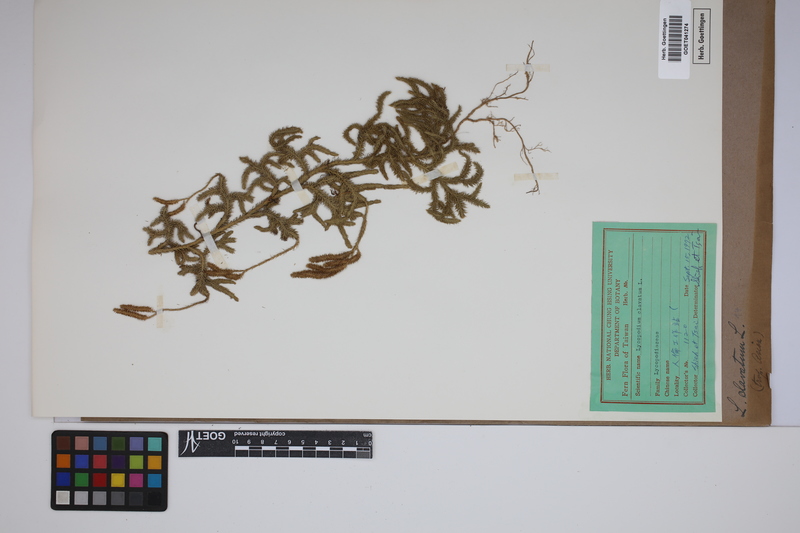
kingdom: Plantae
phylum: Tracheophyta
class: Lycopodiopsida
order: Lycopodiales
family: Lycopodiaceae
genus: Lycopodium
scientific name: Lycopodium clavatum
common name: Stag's-horn clubmoss
